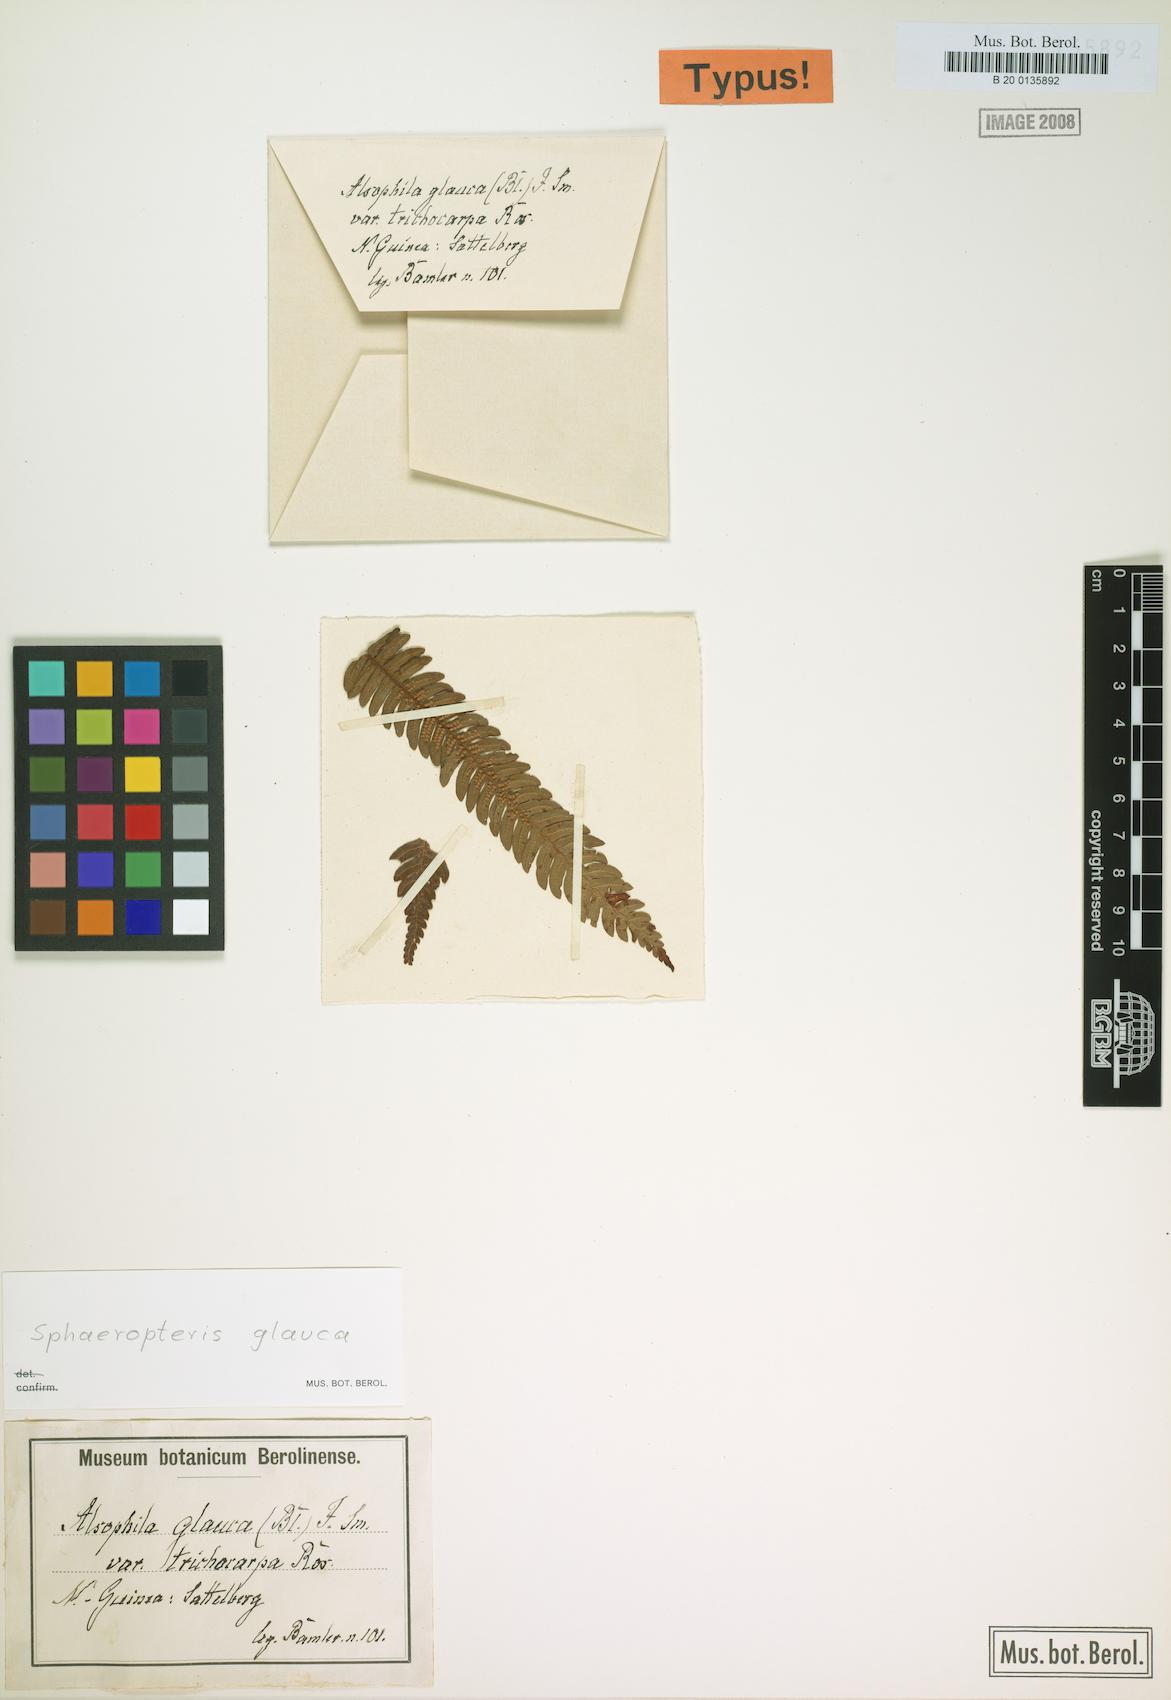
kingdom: Plantae
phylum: Tracheophyta
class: Polypodiopsida
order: Cyatheales
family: Cyatheaceae
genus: Sphaeropteris
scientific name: Sphaeropteris glauca
